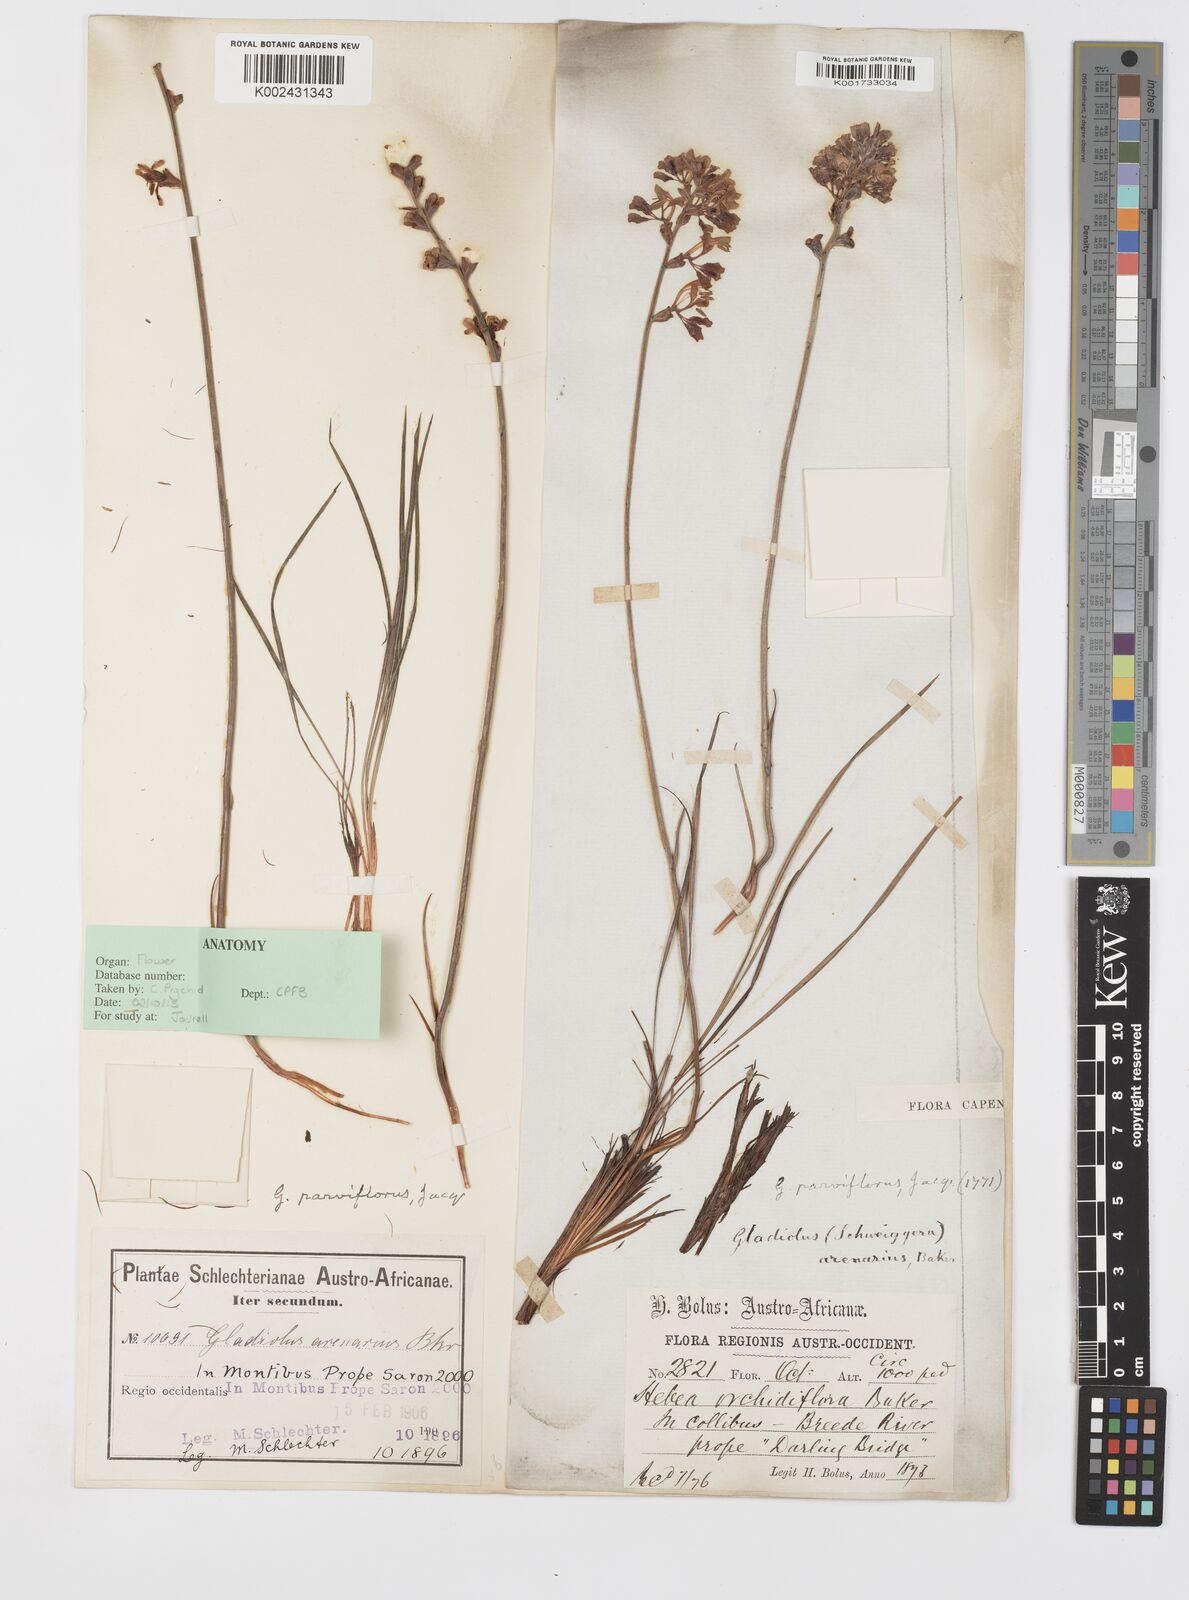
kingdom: Plantae
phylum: Tracheophyta
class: Liliopsida
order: Asparagales
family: Iridaceae
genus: Tritoniopsis
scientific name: Tritoniopsis parviflora
